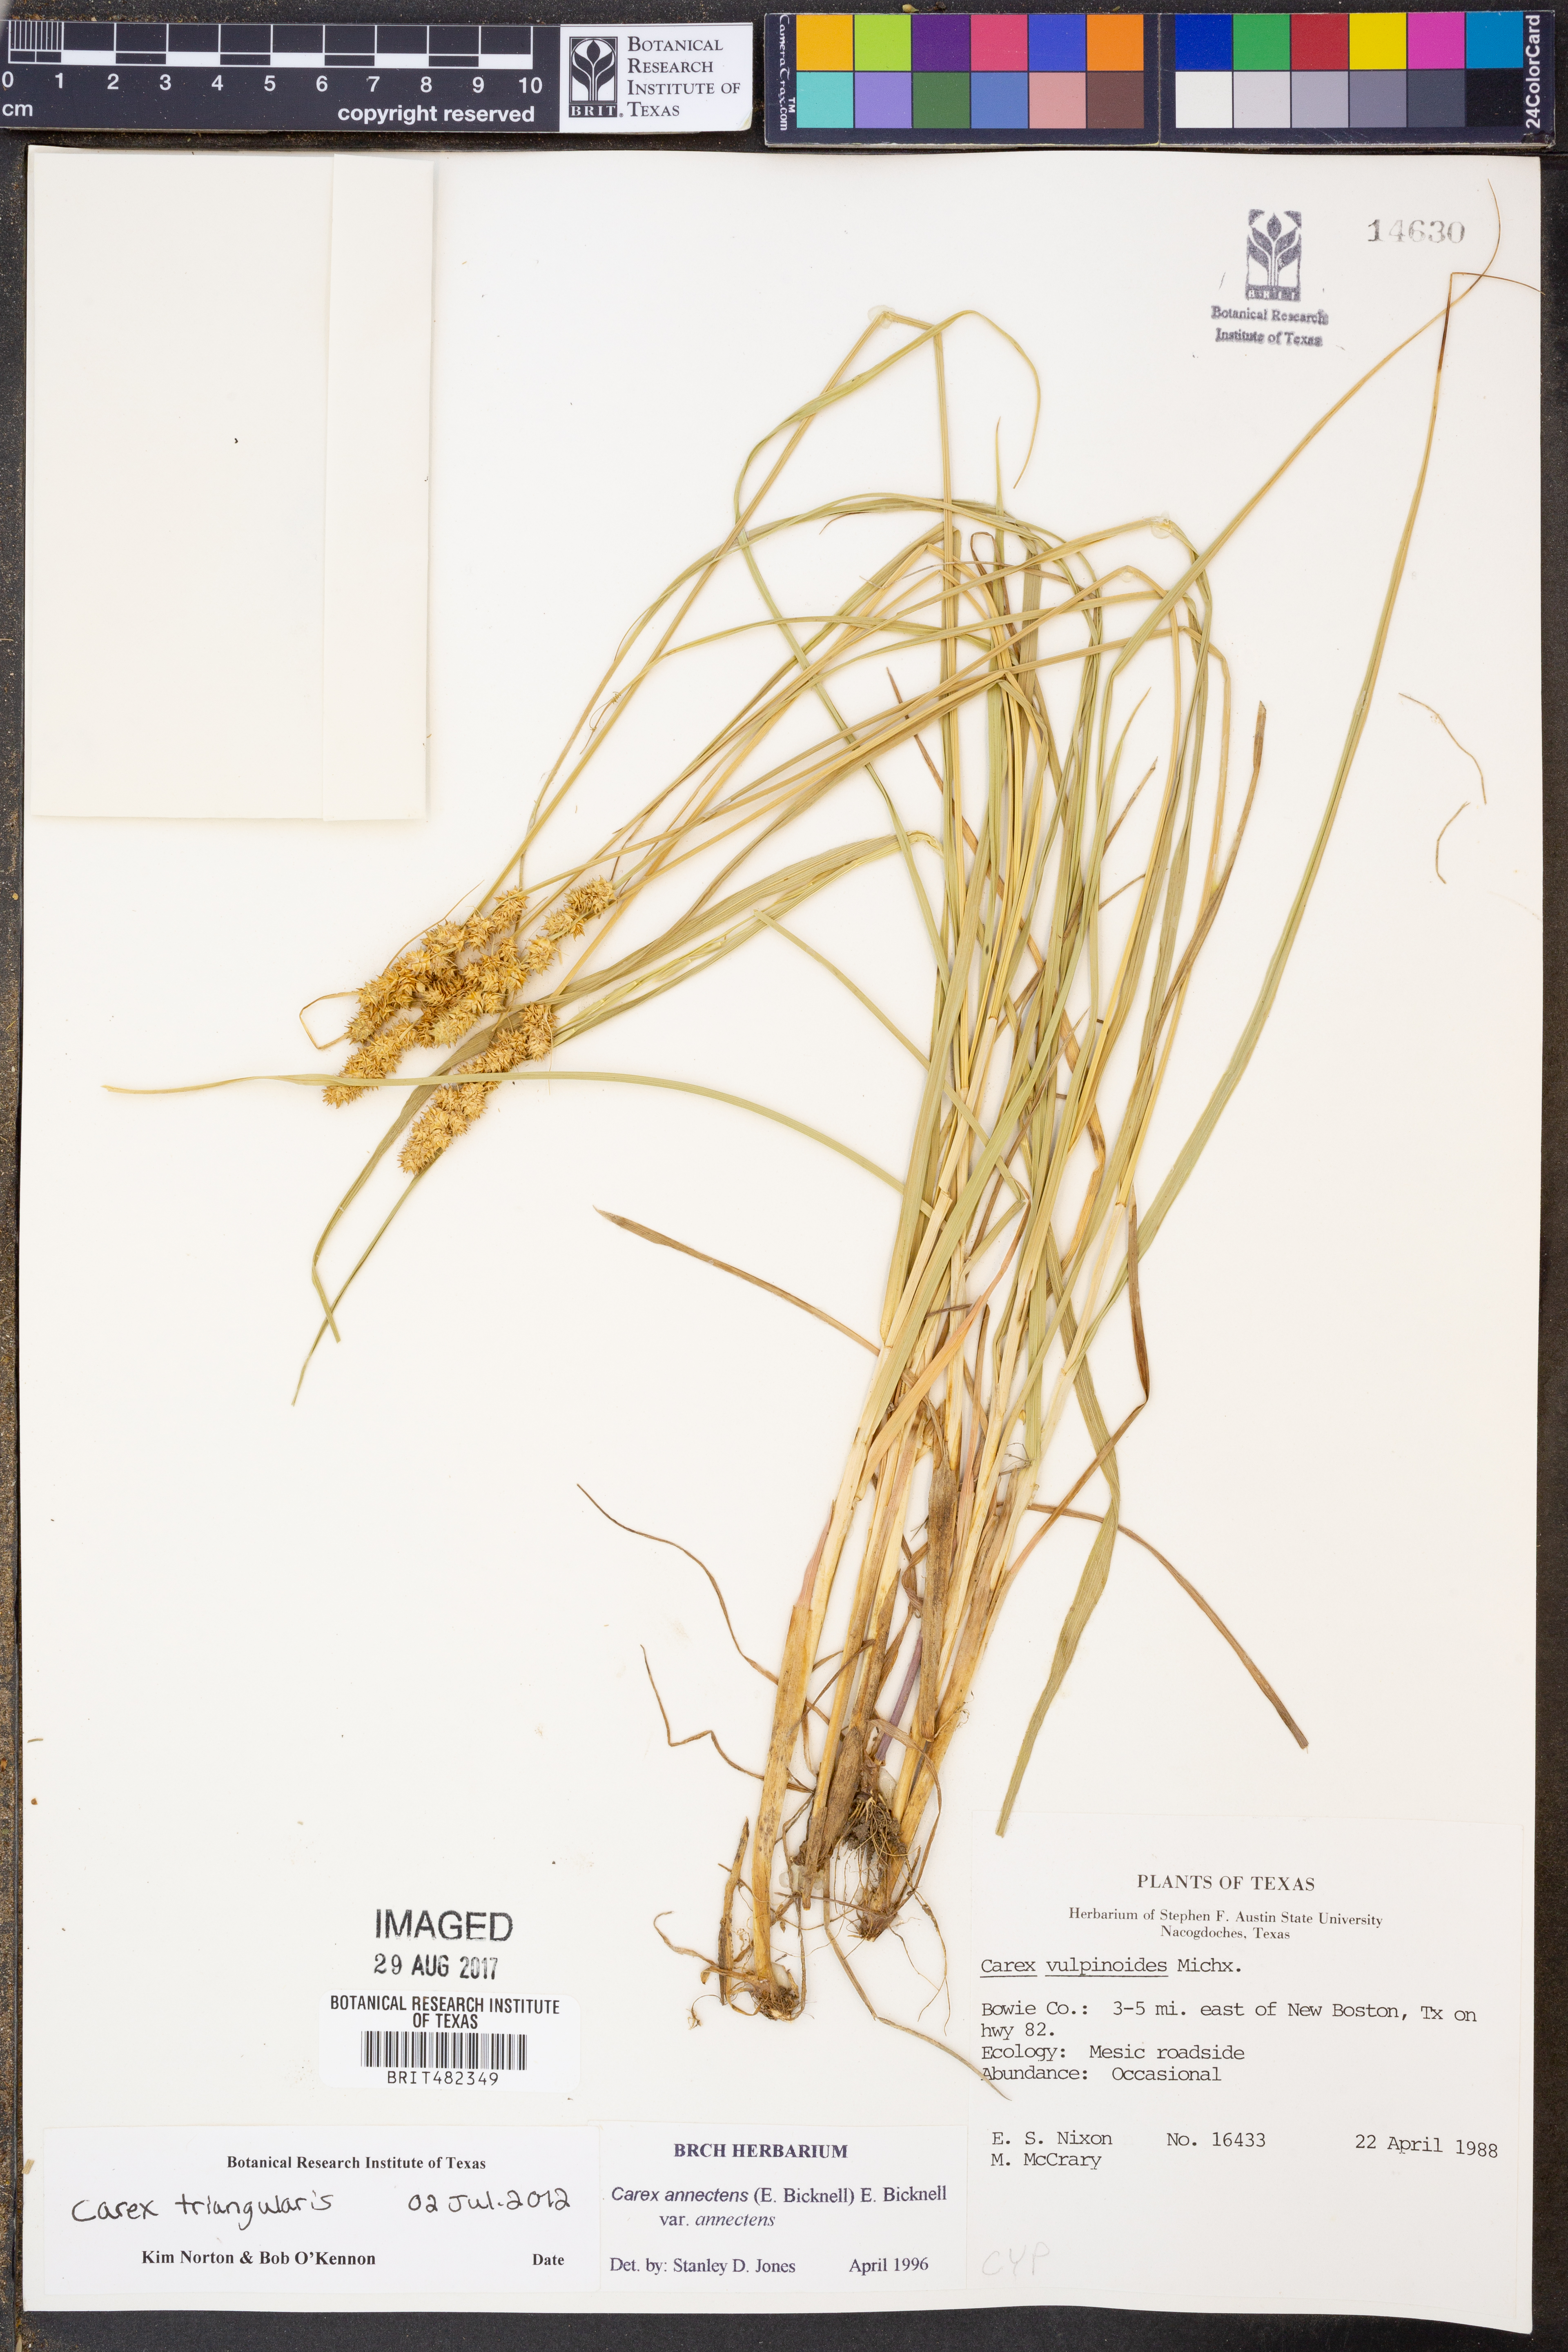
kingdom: Plantae
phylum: Tracheophyta
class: Liliopsida
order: Poales
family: Cyperaceae
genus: Carex
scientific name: Carex vulpinoidea
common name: American fox-sedge
